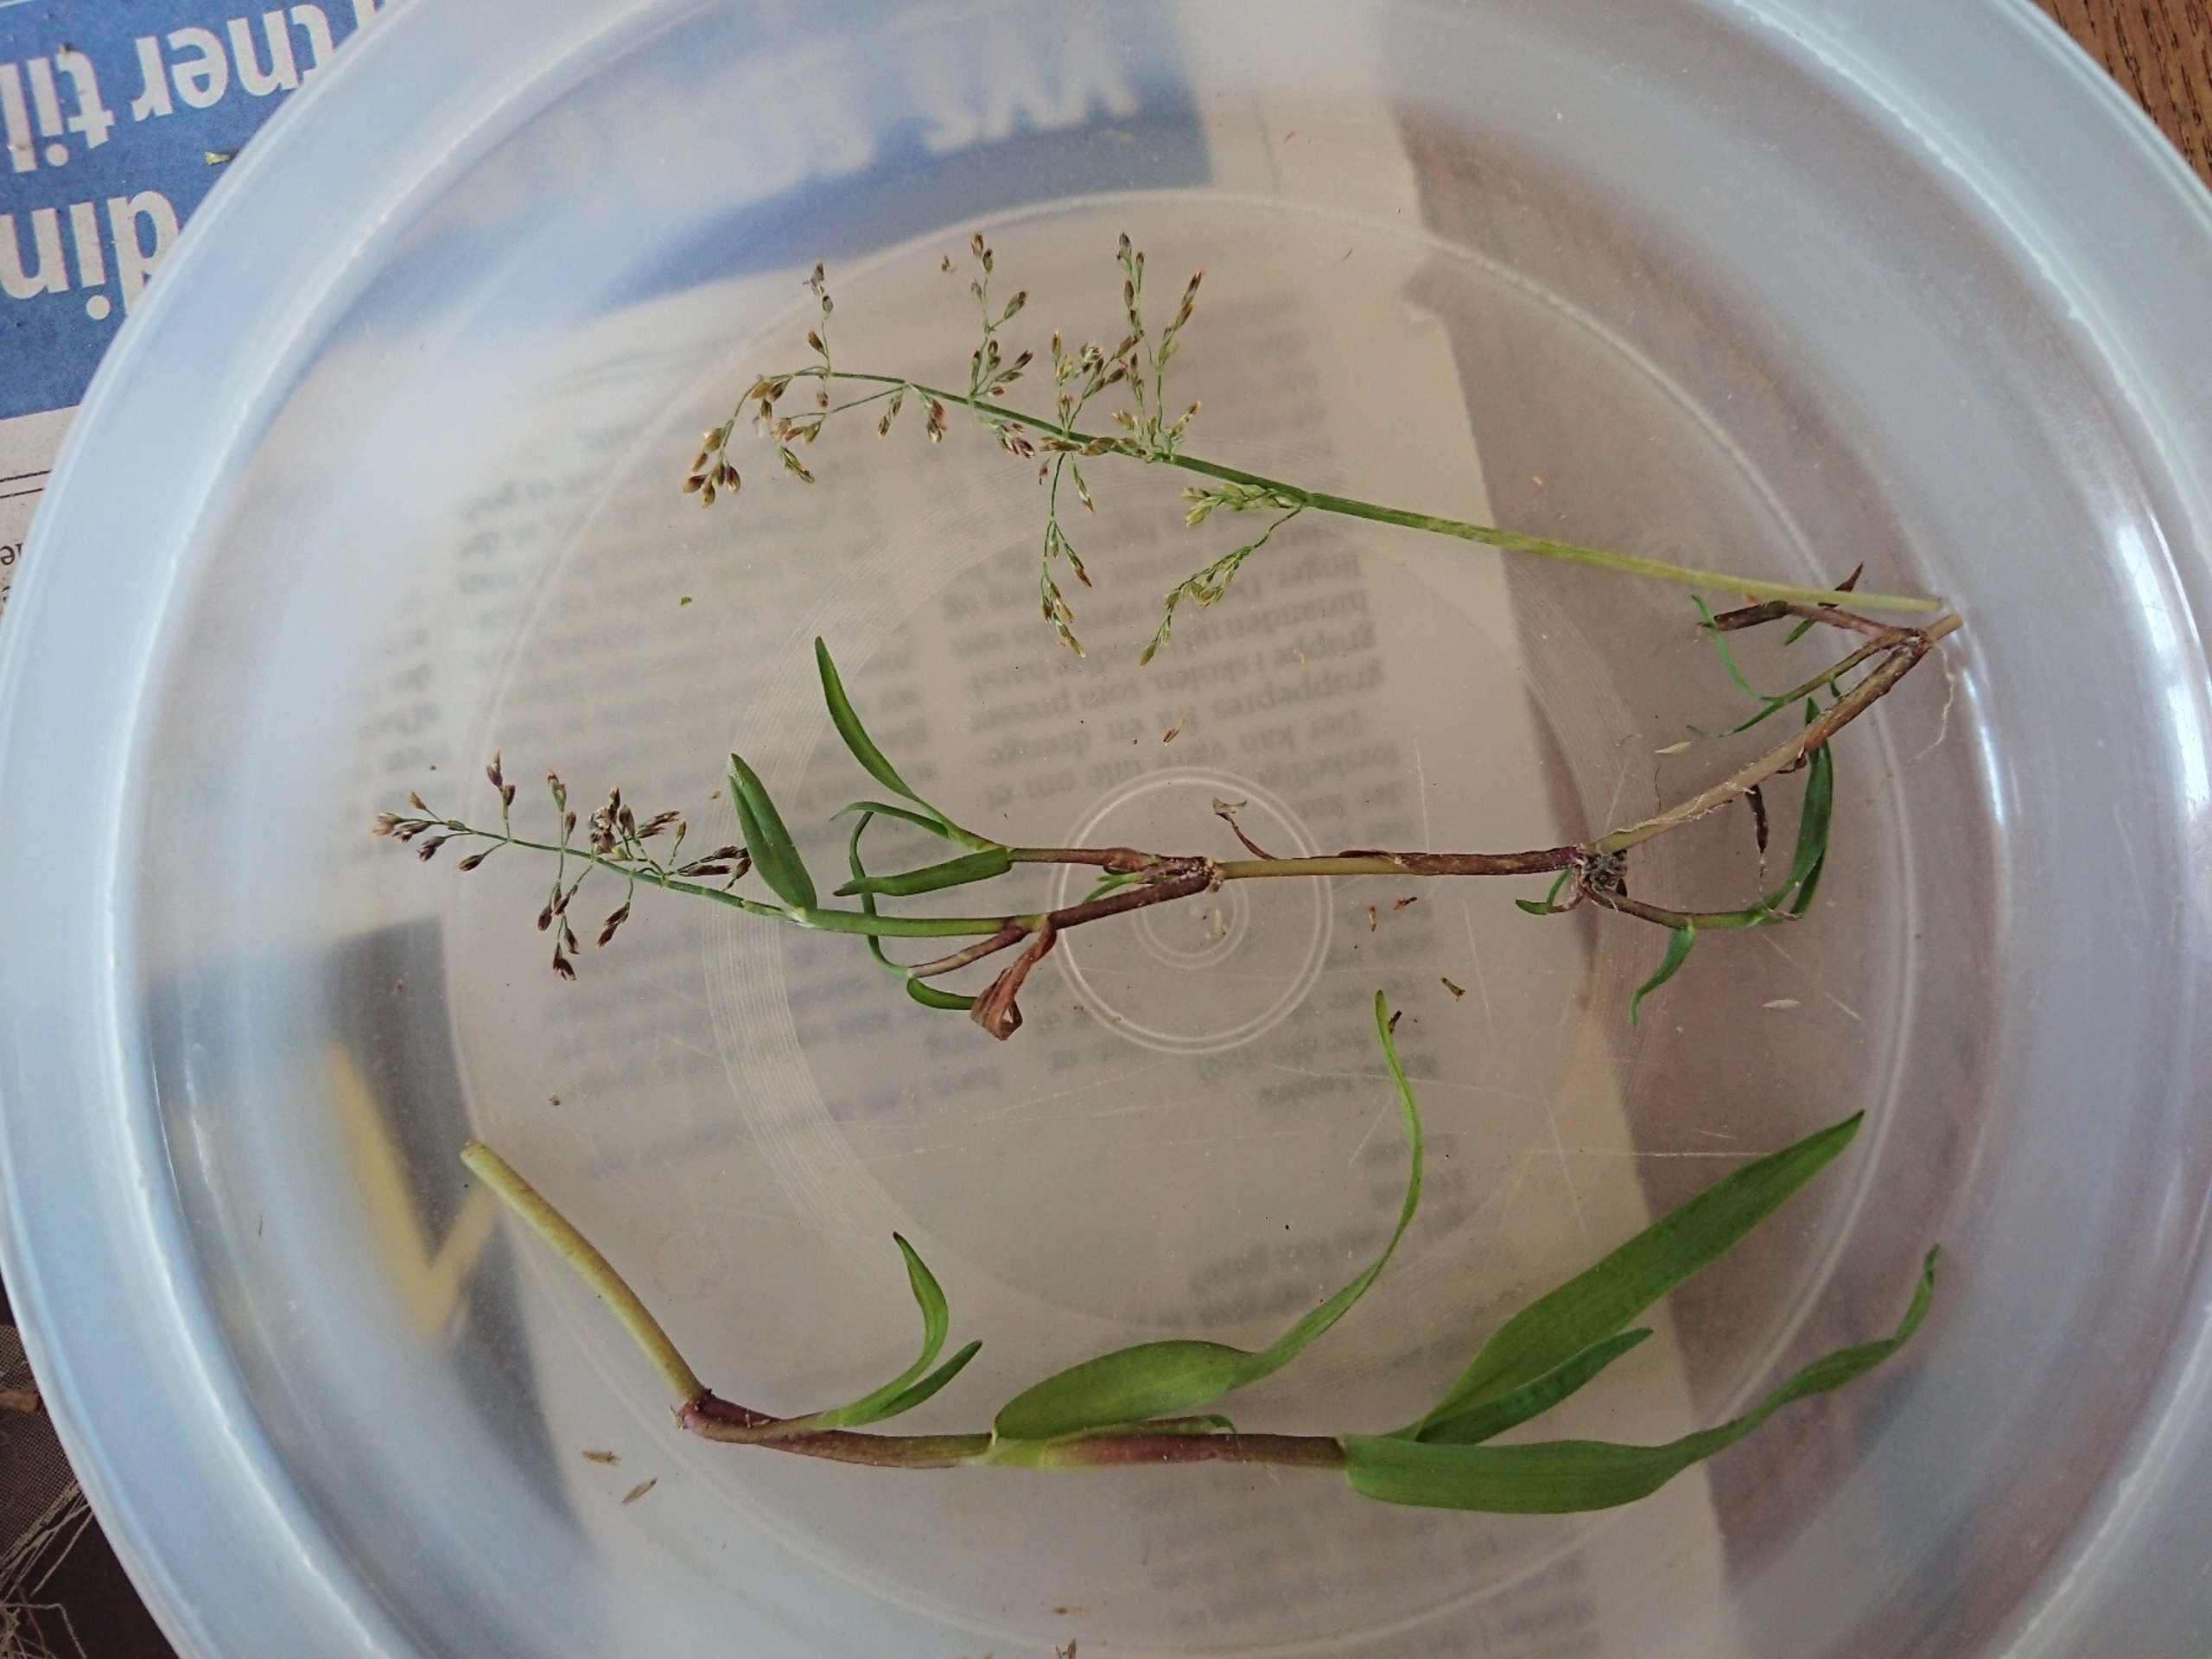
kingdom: Plantae
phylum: Tracheophyta
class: Liliopsida
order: Poales
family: Poaceae
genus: Catabrosa
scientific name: Catabrosa aquatica
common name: Tæppegræs
